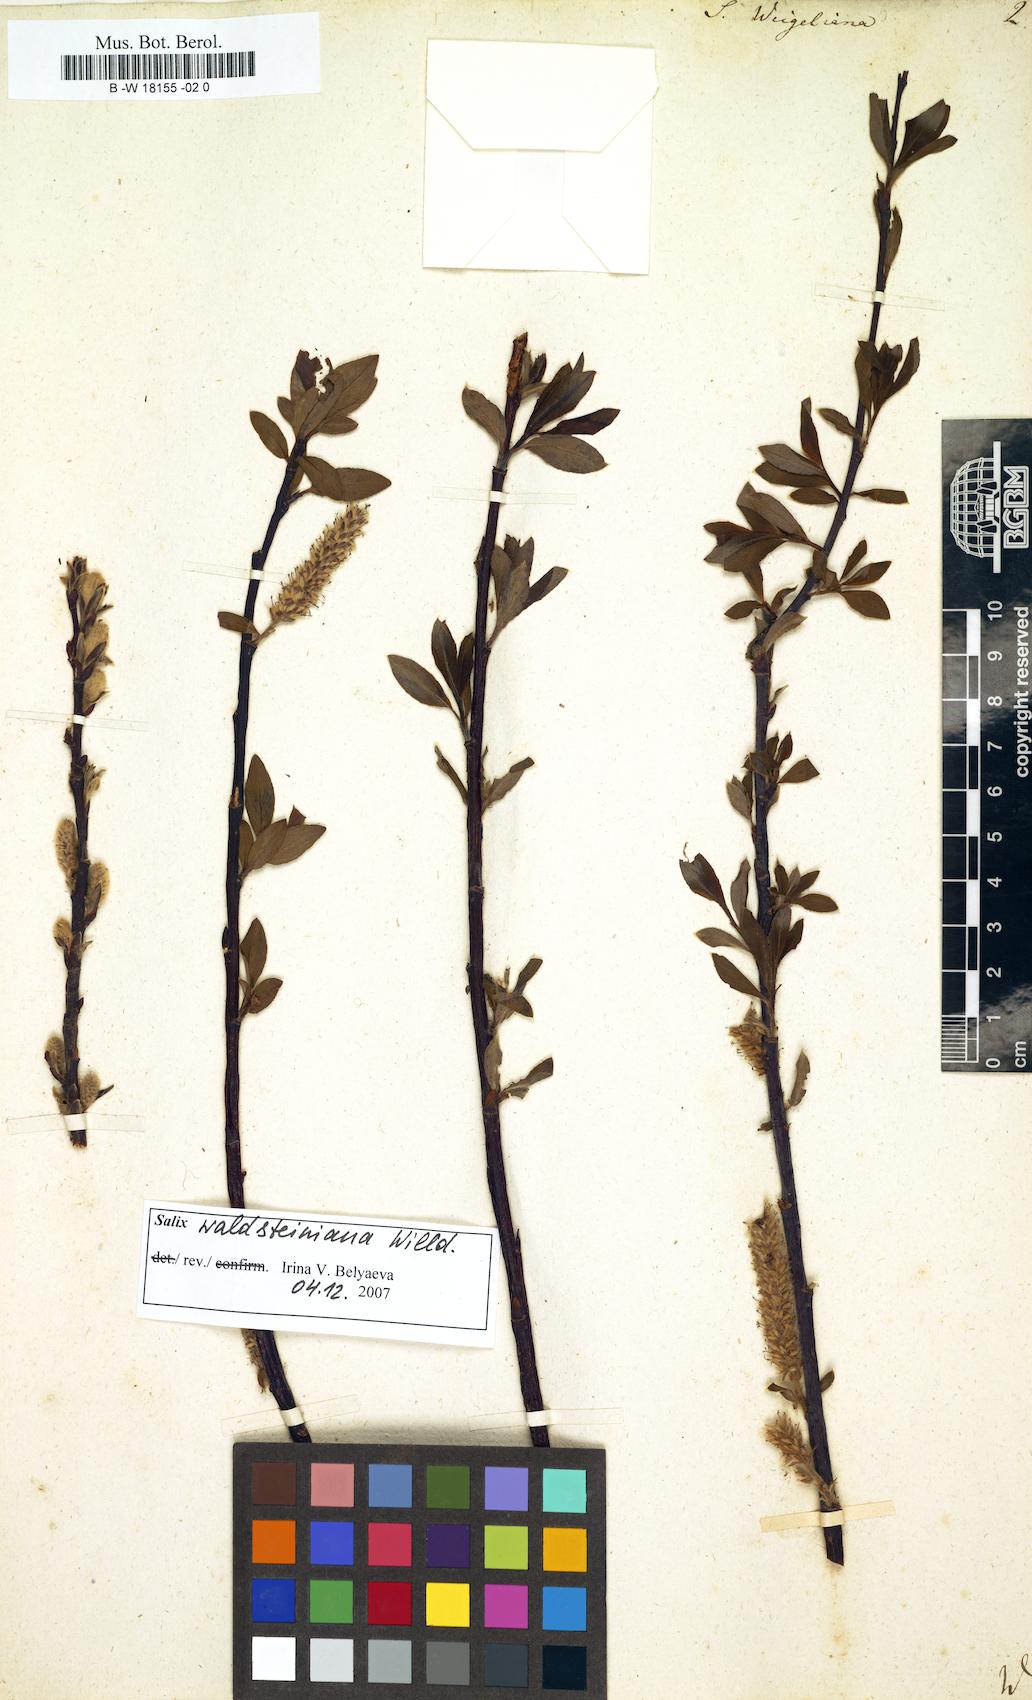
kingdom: Plantae
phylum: Tracheophyta
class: Magnoliopsida
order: Malpighiales
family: Salicaceae
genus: Salix
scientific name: Salix bicolor
